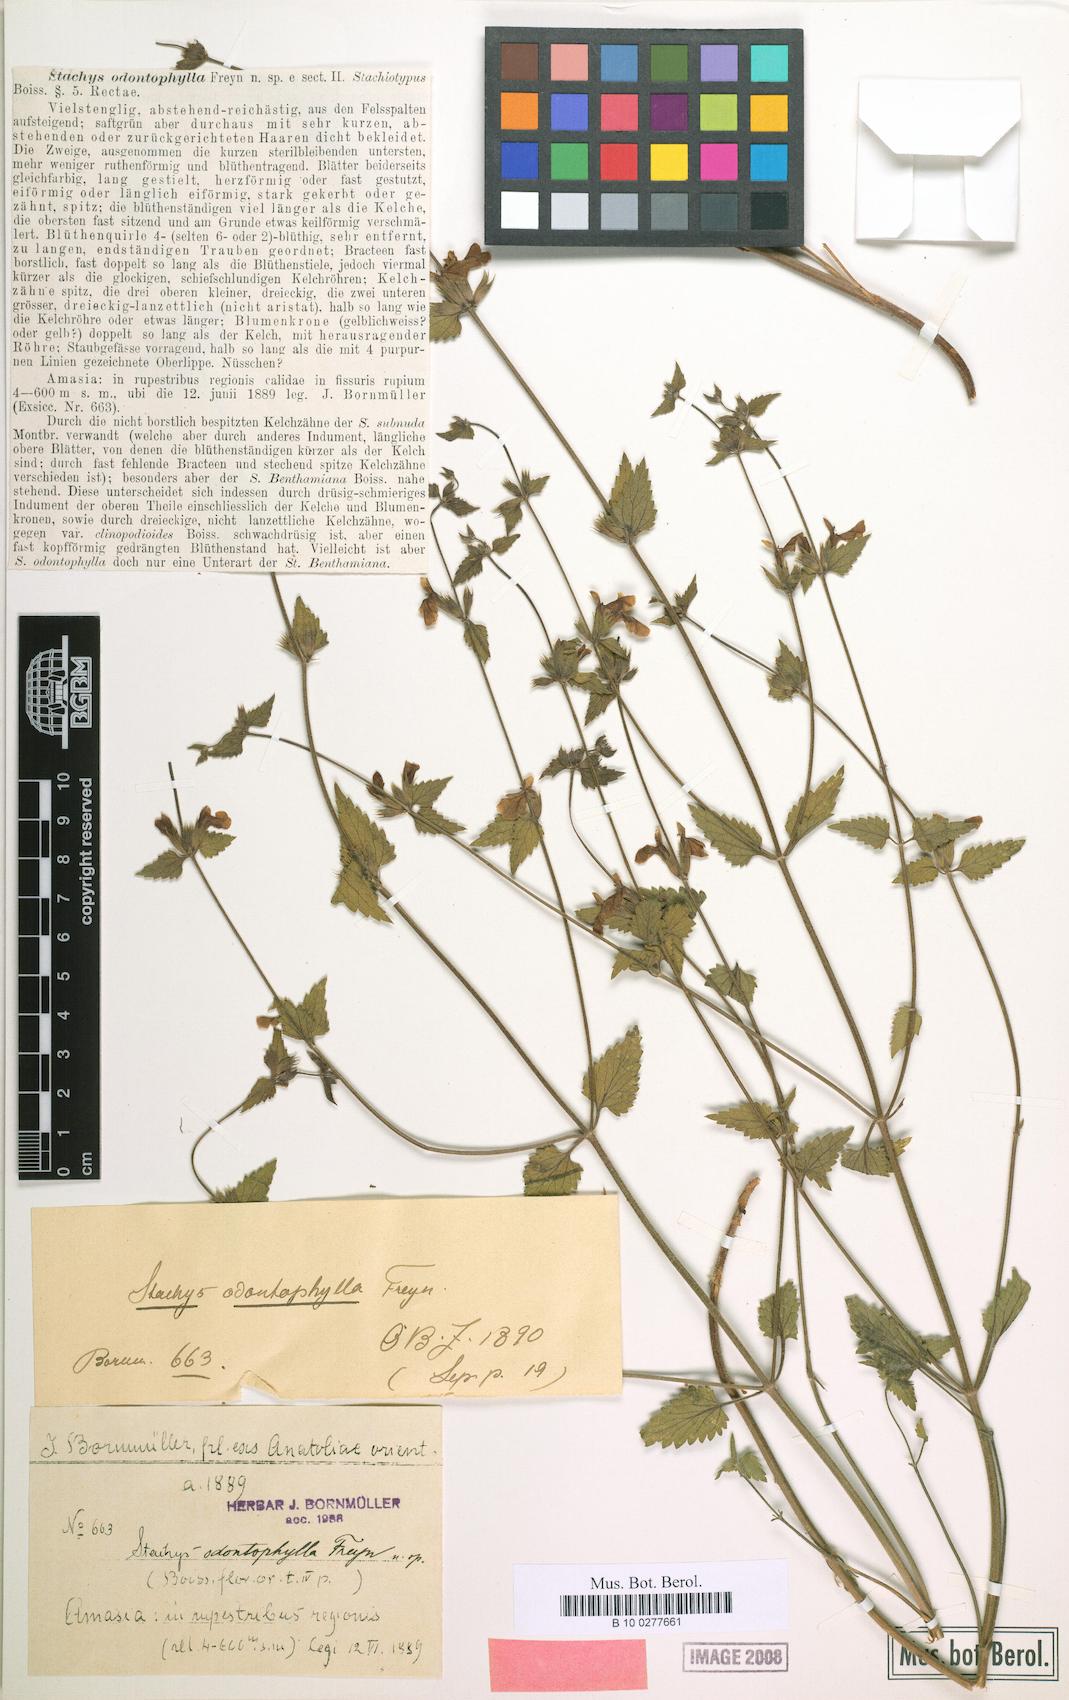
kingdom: Plantae
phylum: Tracheophyta
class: Magnoliopsida
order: Lamiales
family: Lamiaceae
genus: Stachys
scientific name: Stachys viscosa
